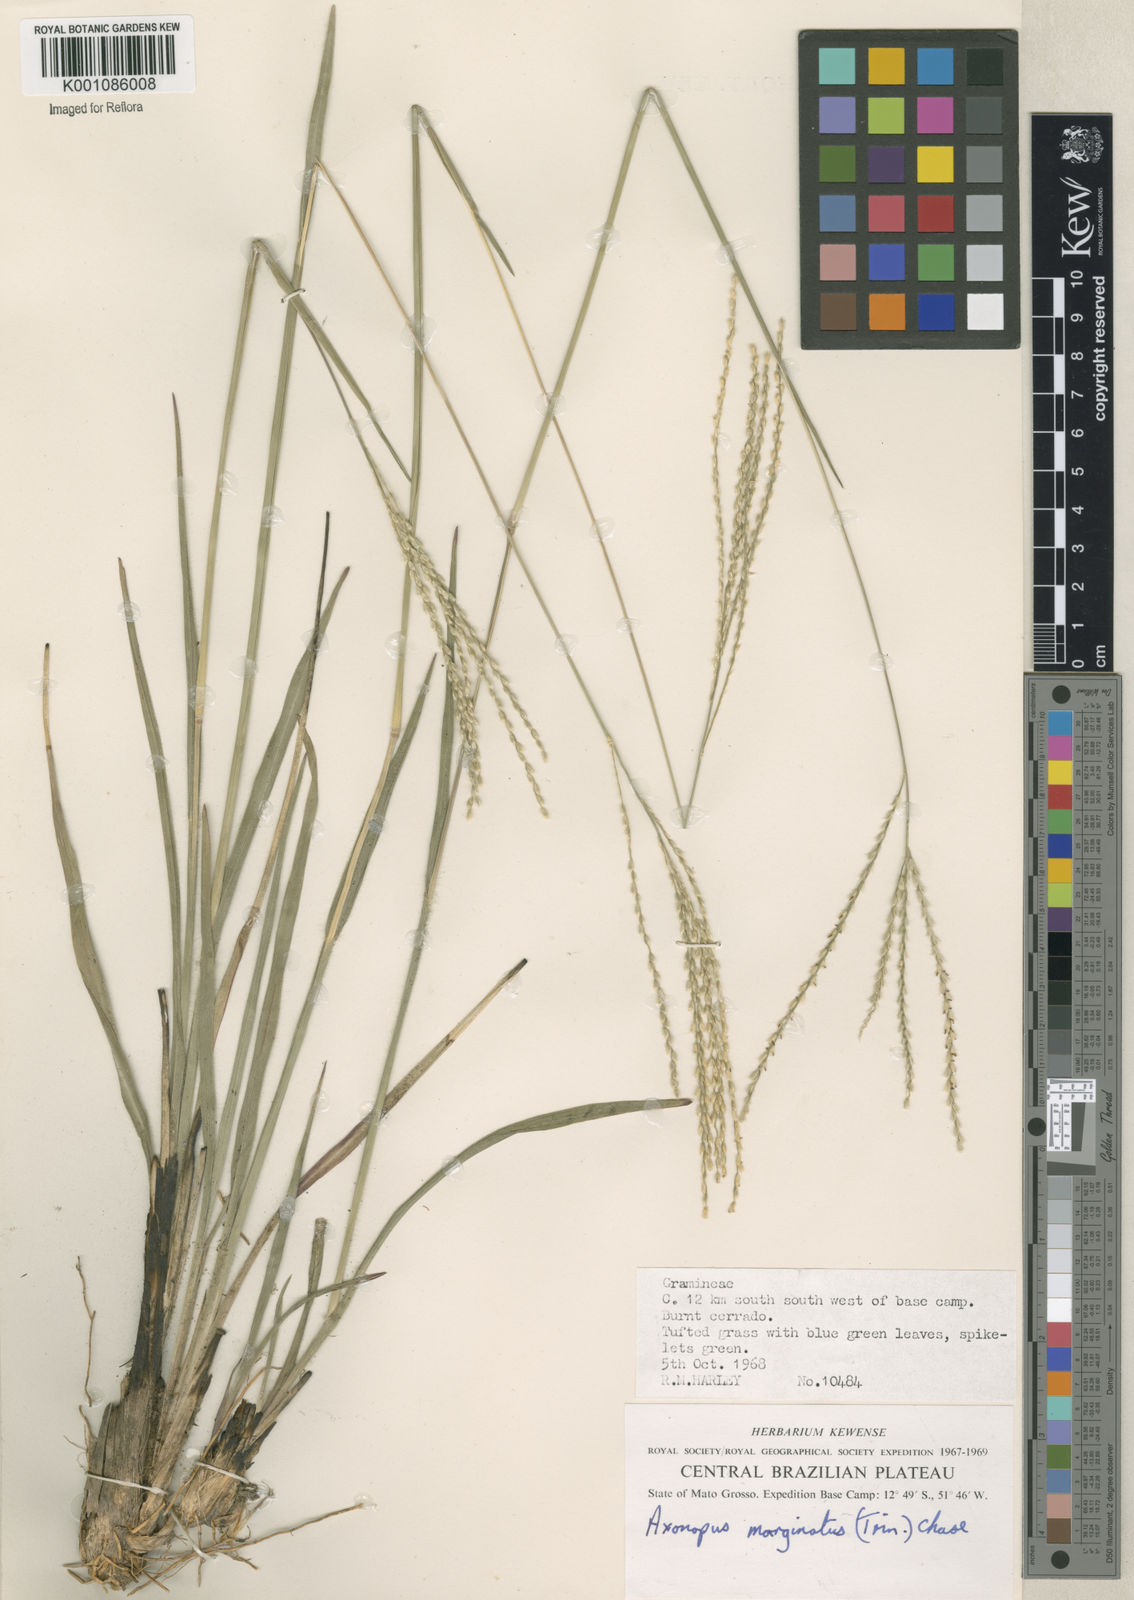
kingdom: Plantae
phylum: Tracheophyta
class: Liliopsida
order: Poales
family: Poaceae
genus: Axonopus
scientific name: Axonopus
